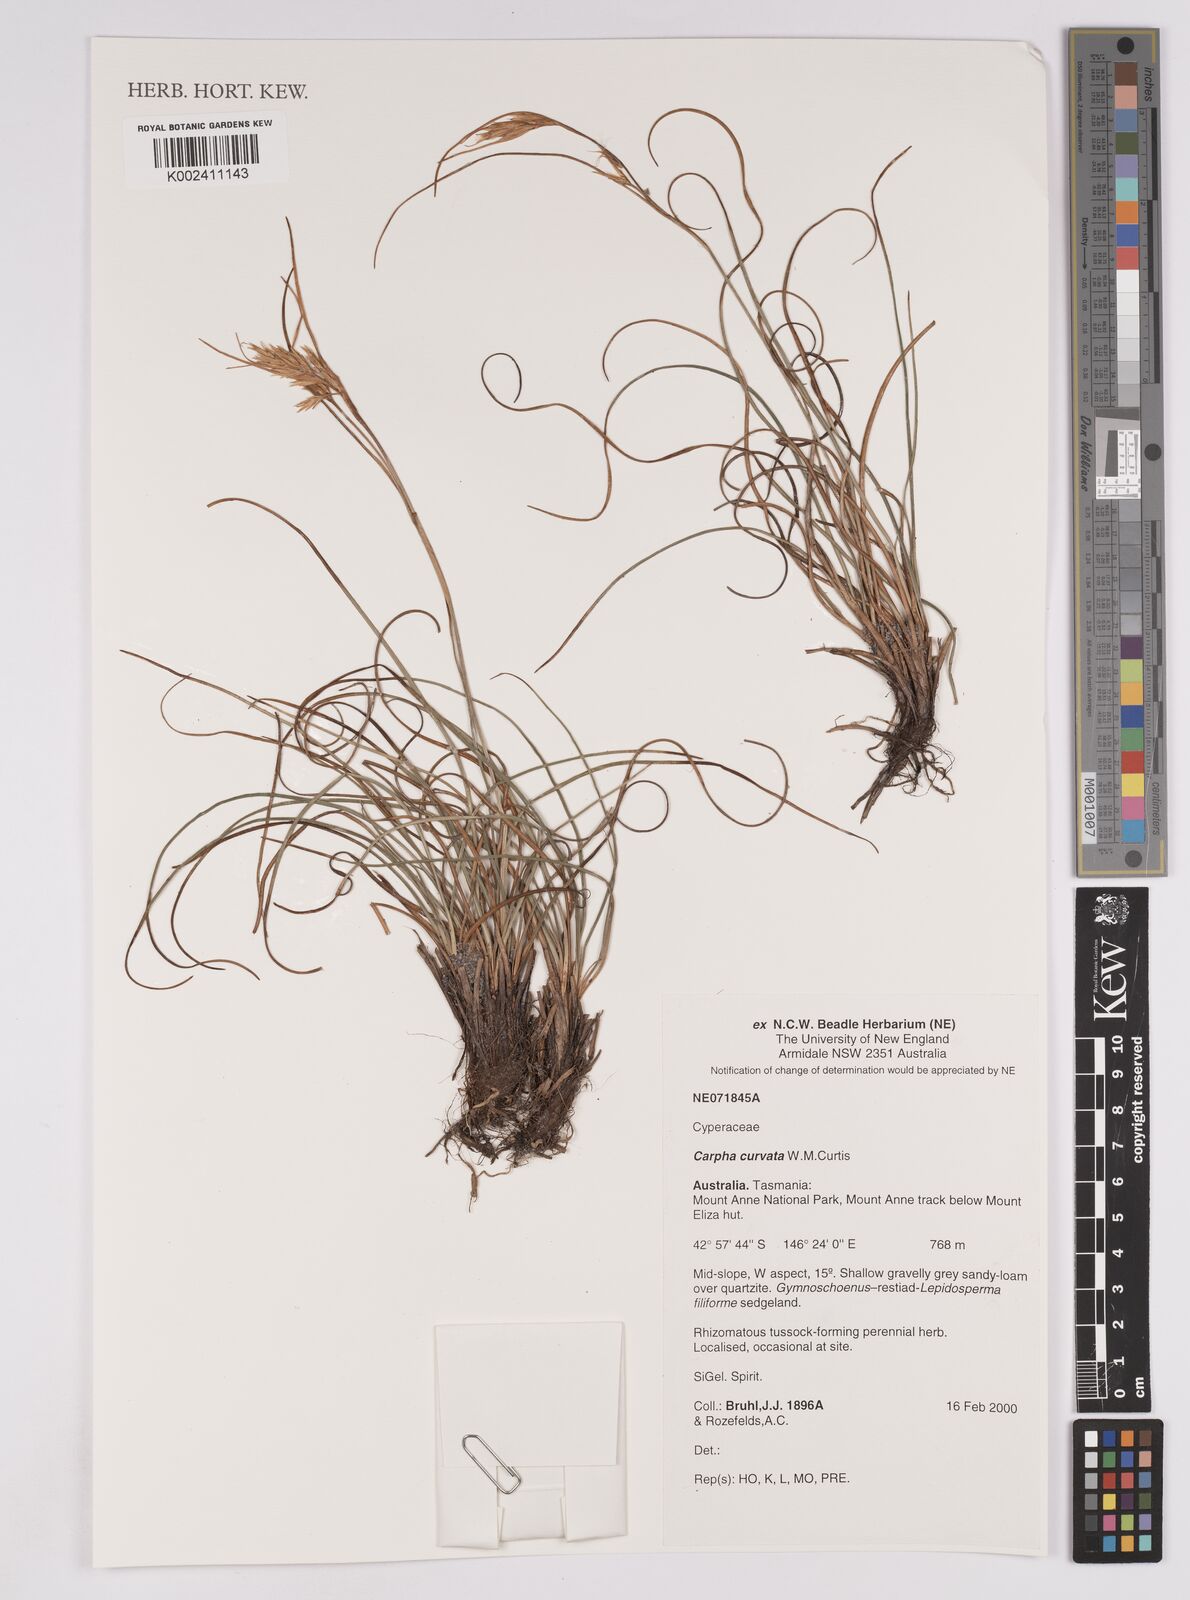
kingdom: Plantae
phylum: Tracheophyta
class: Liliopsida
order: Poales
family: Cyperaceae
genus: Carpha
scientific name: Carpha curvata
